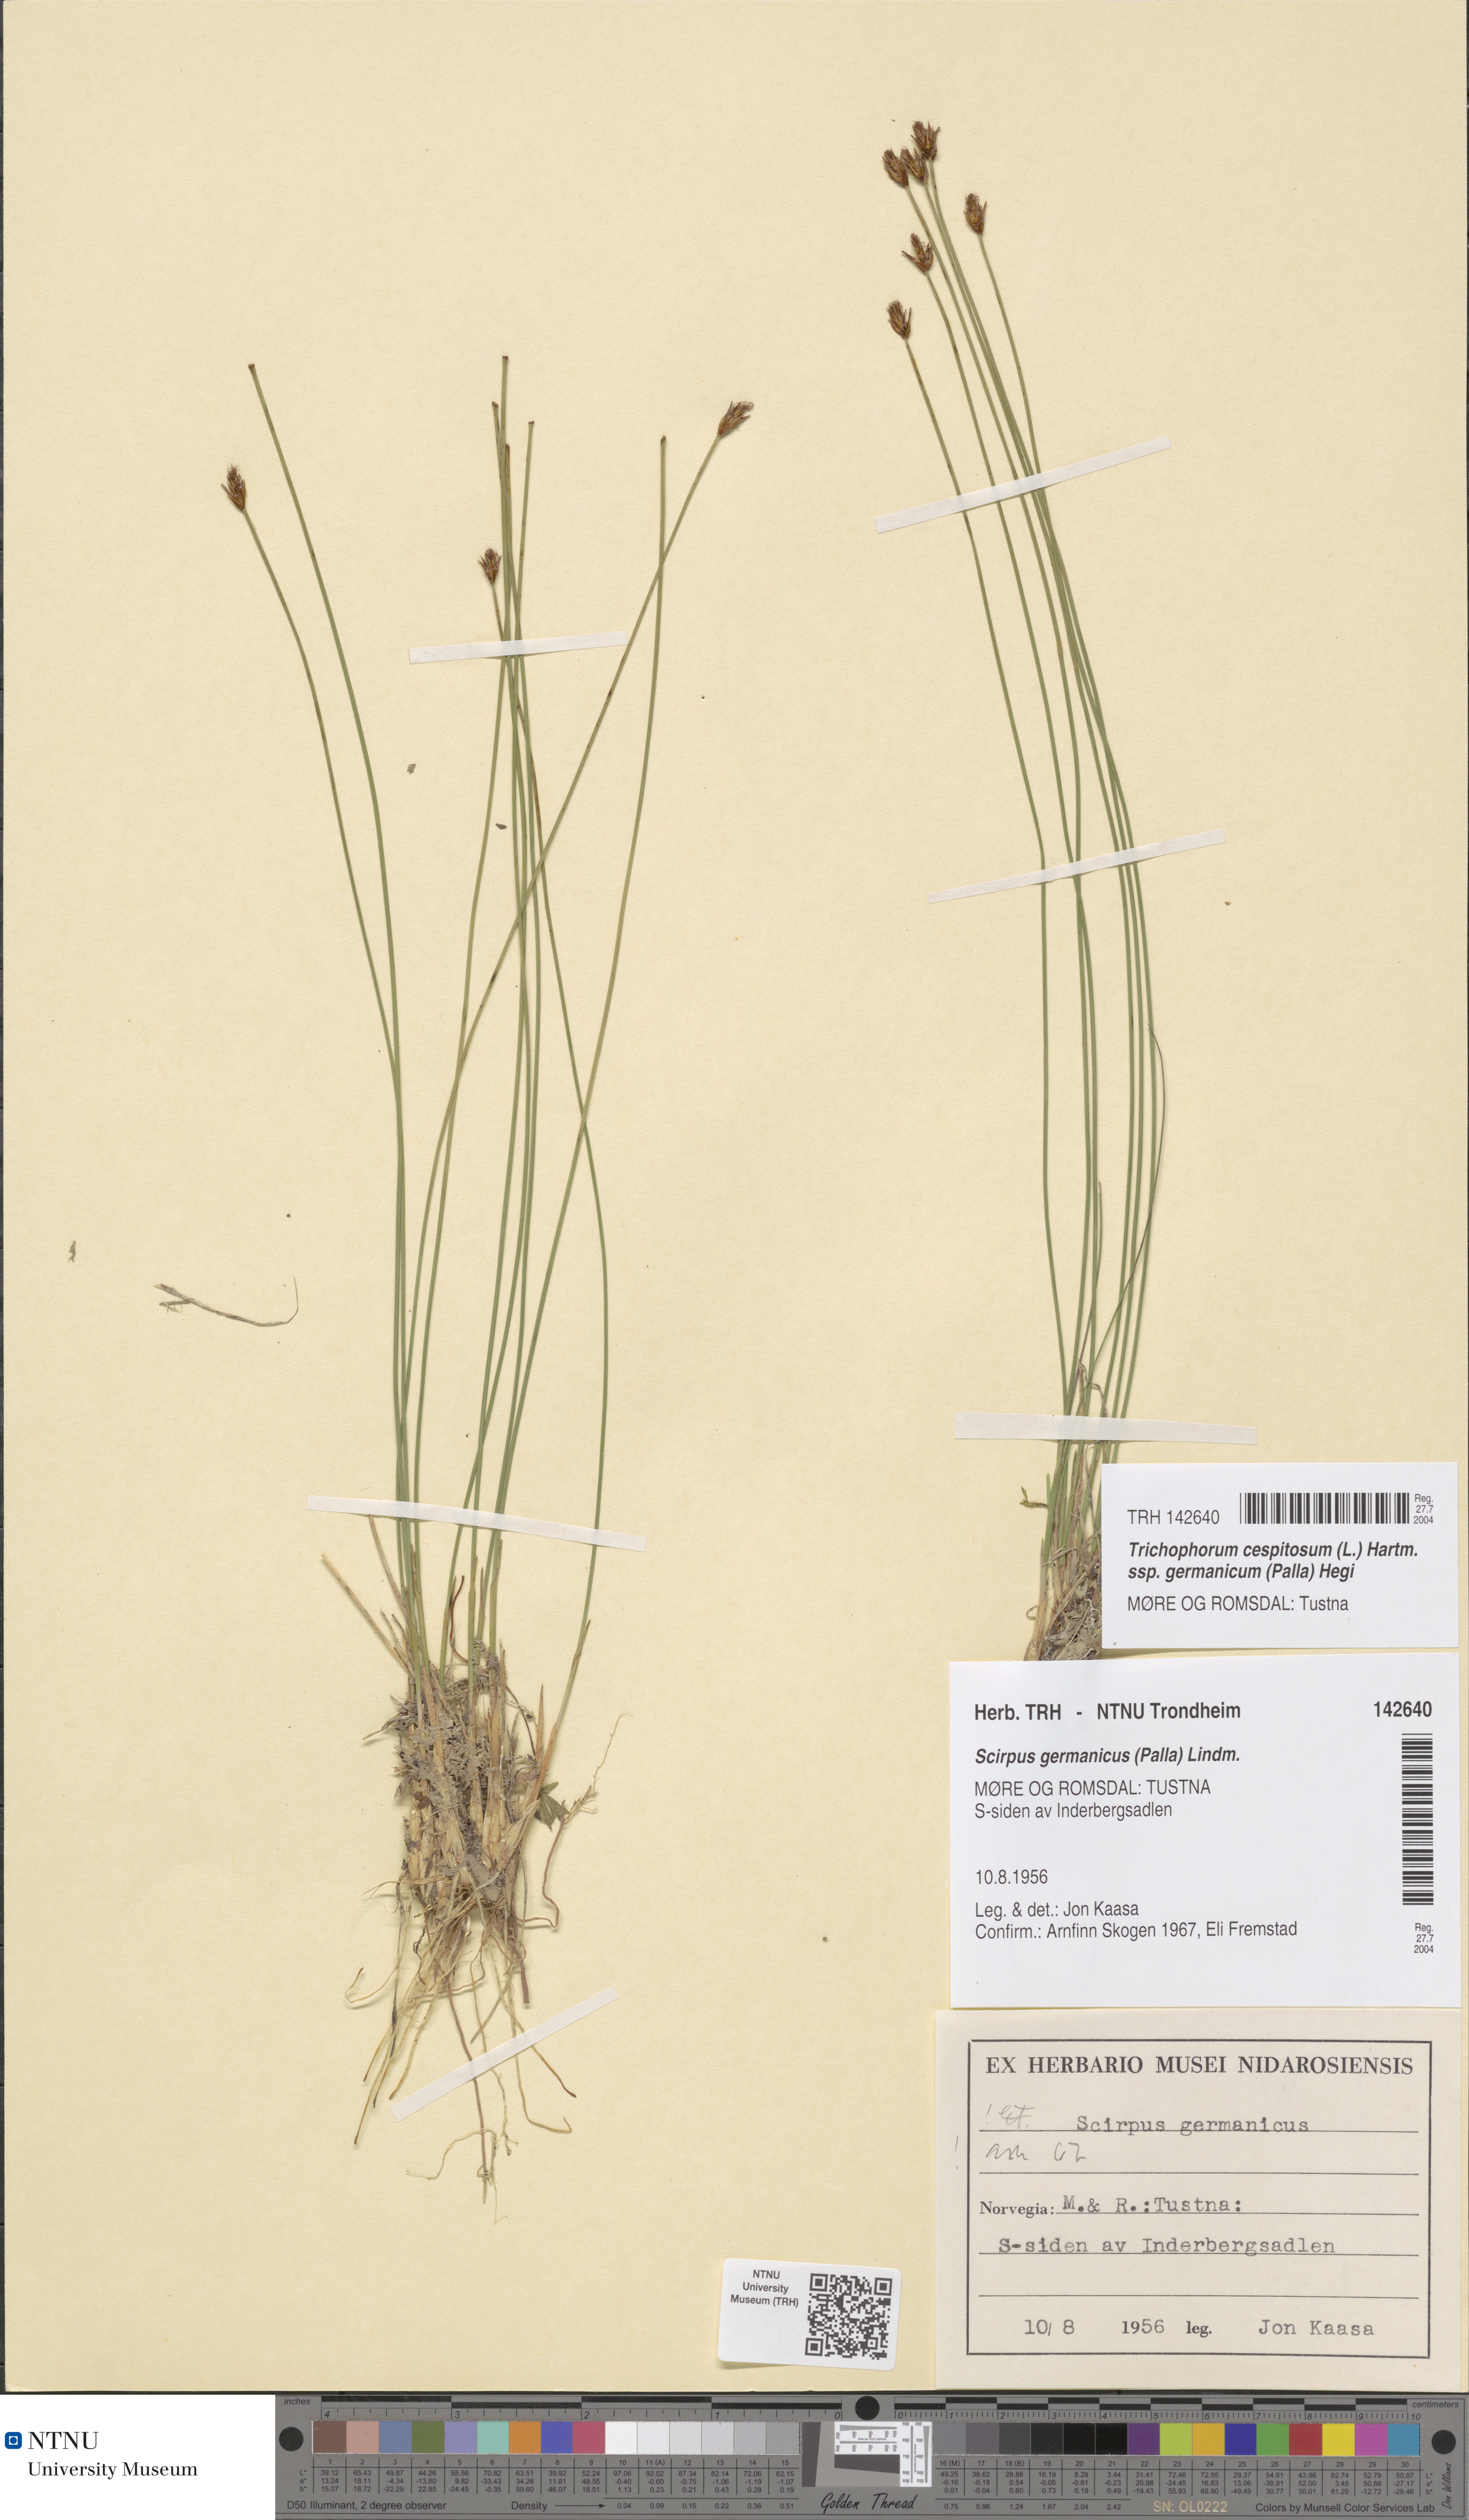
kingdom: Plantae
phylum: Tracheophyta
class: Liliopsida
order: Poales
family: Cyperaceae
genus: Trichophorum
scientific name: Trichophorum cespitosum
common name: Cespitose bulrush
